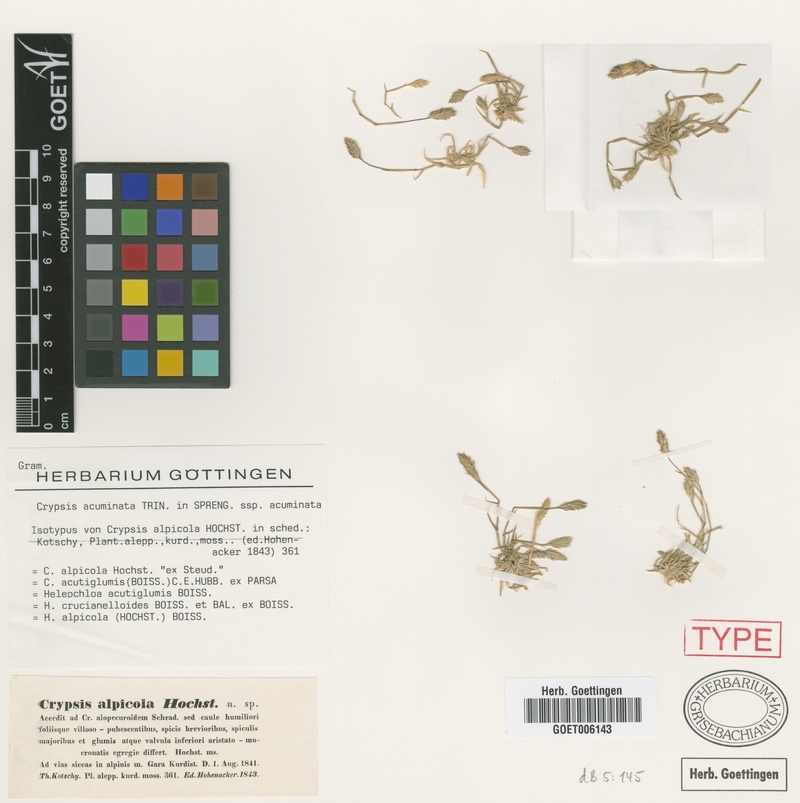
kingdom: Plantae
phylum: Tracheophyta
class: Liliopsida
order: Poales
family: Poaceae
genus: Sporobolus
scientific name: Sporobolus borszczowii
